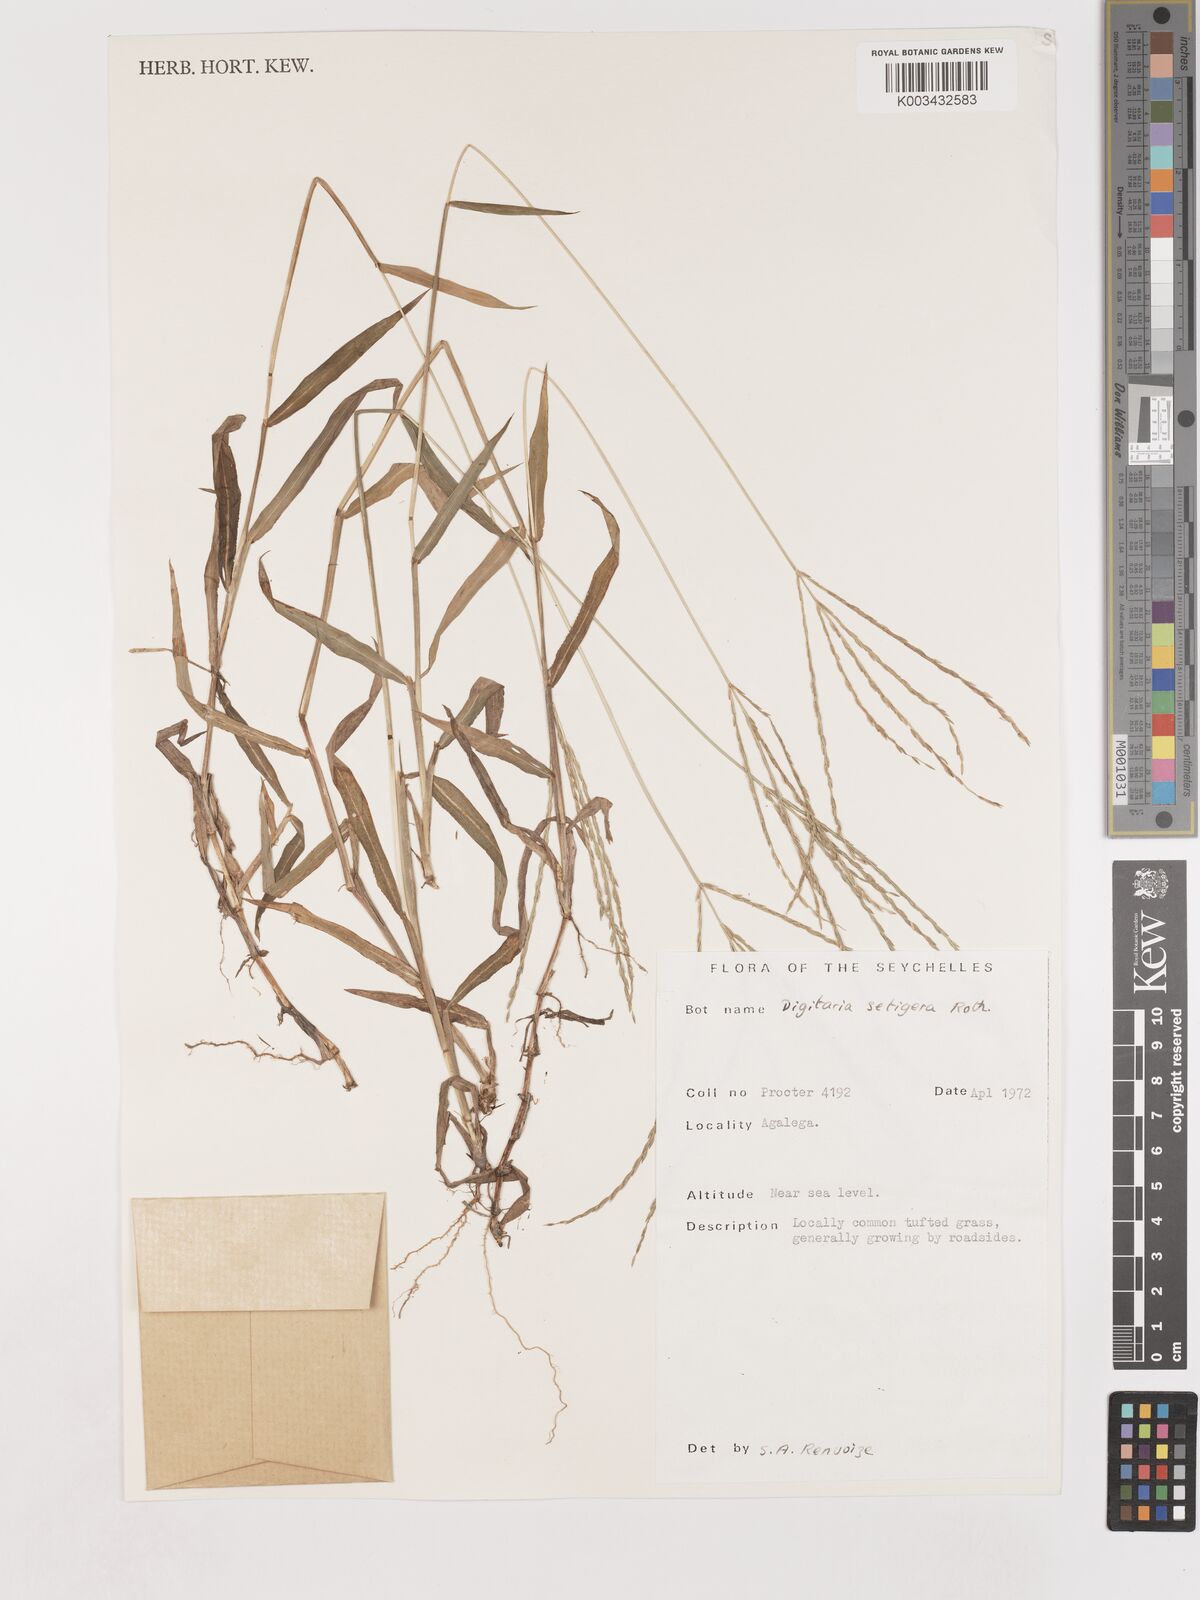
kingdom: Plantae
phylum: Tracheophyta
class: Liliopsida
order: Poales
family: Poaceae
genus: Digitaria
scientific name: Digitaria setigera
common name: East indian crabgrass
